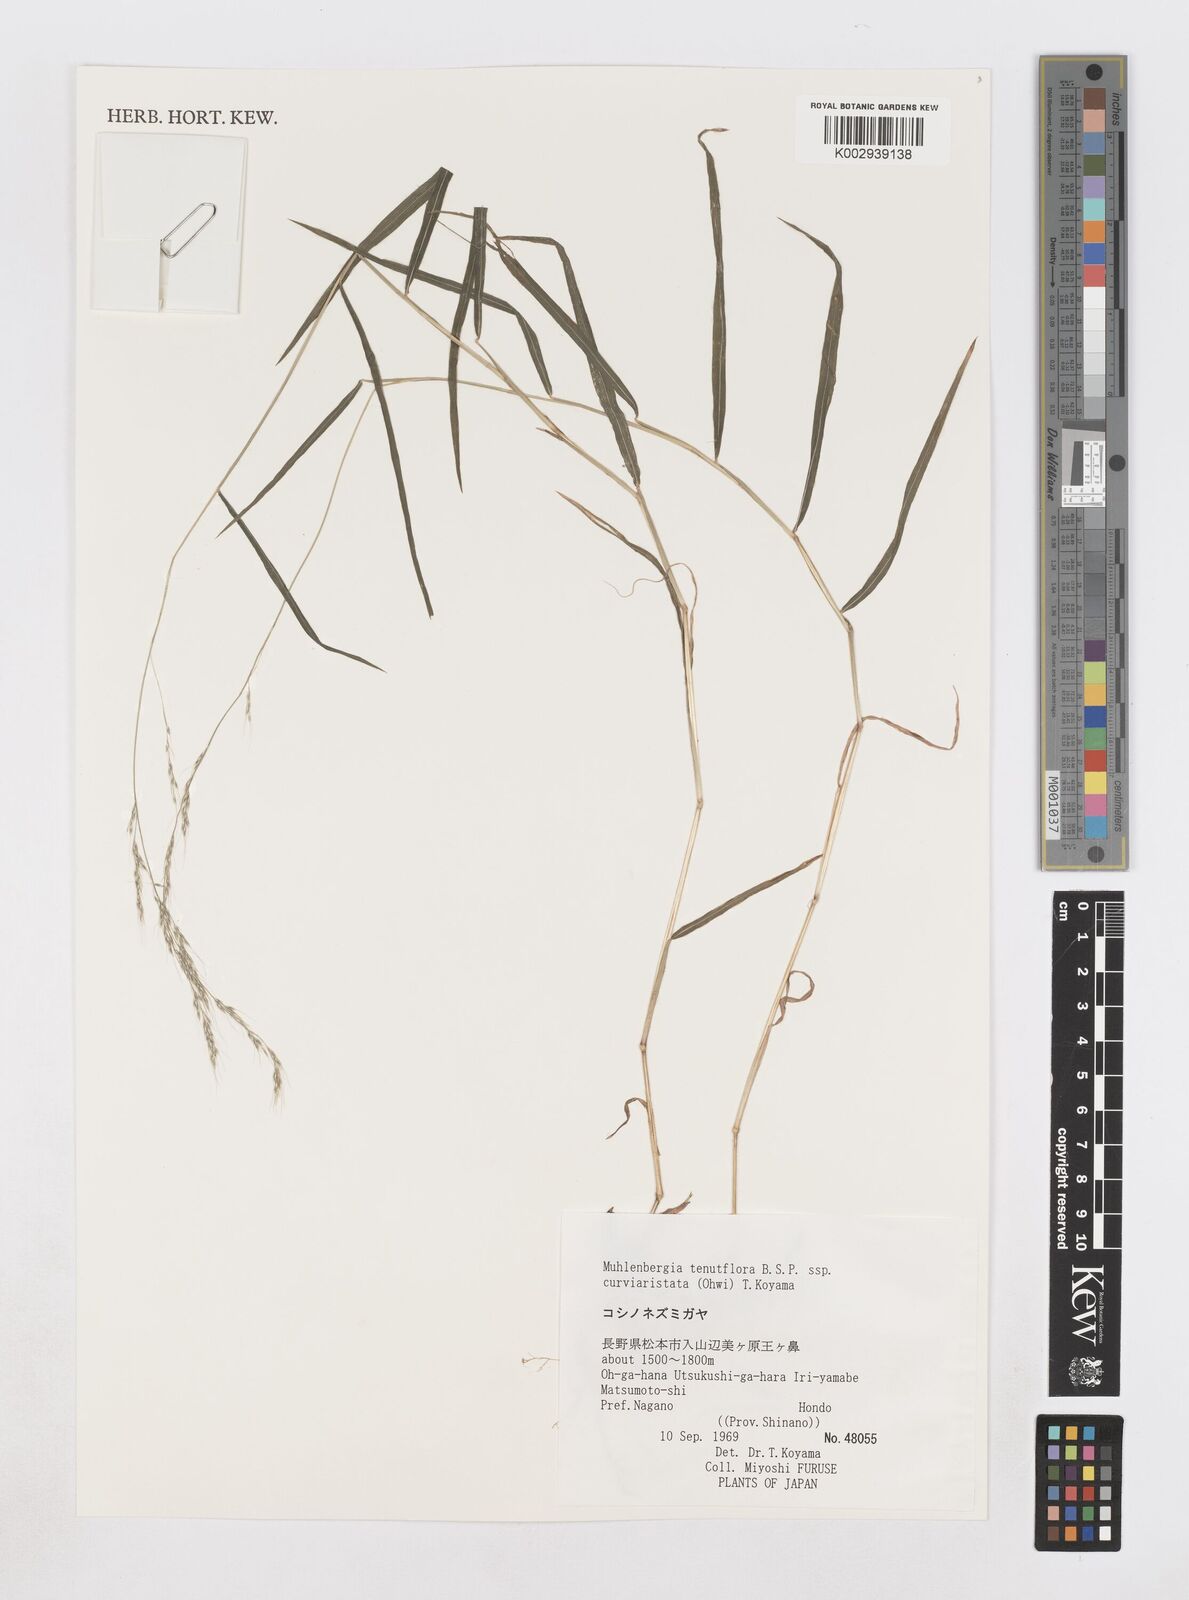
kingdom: Plantae
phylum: Tracheophyta
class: Liliopsida
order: Poales
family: Poaceae
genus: Muhlenbergia
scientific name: Muhlenbergia tenuiflora
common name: Slender muhly
